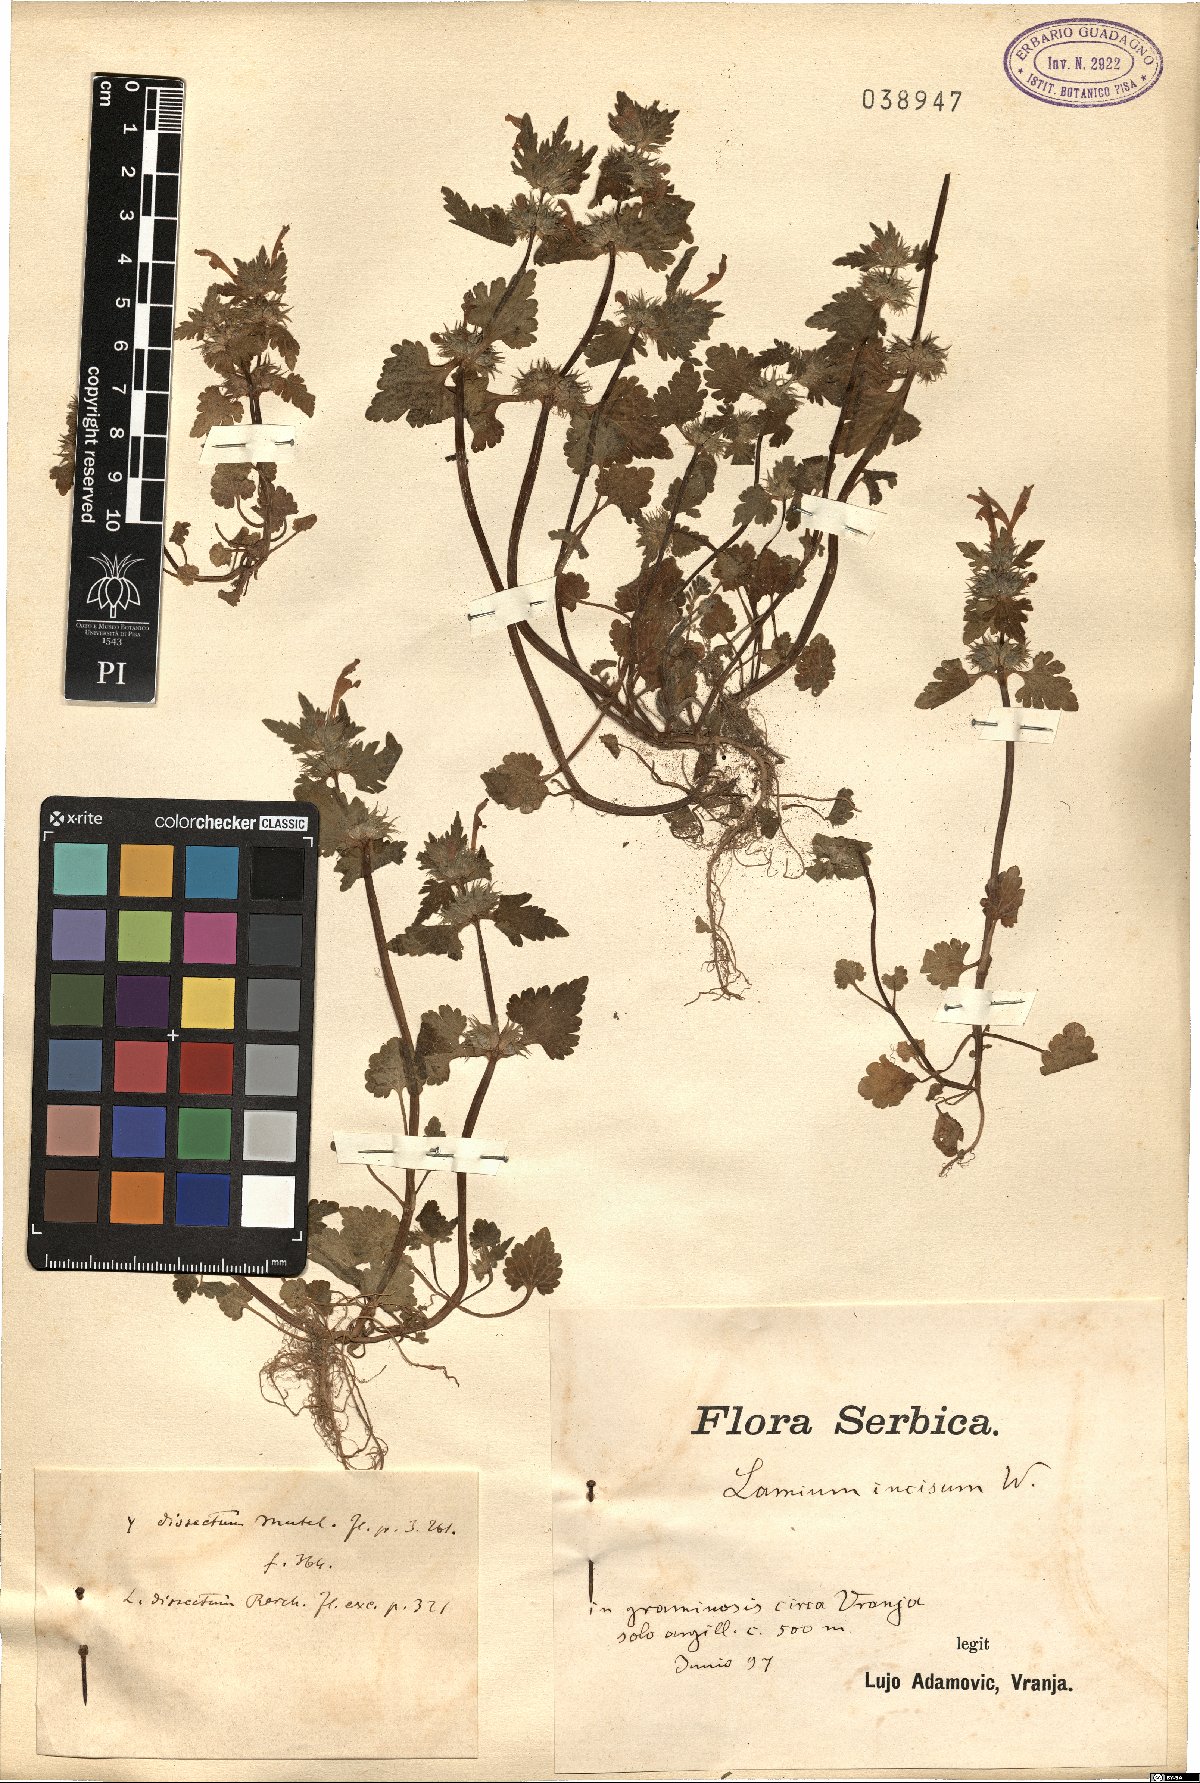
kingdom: Plantae
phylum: Tracheophyta
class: Magnoliopsida
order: Lamiales
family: Lamiaceae
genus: Lamium
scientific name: Lamium hybridum
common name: Cut-leaved dead-nettle
